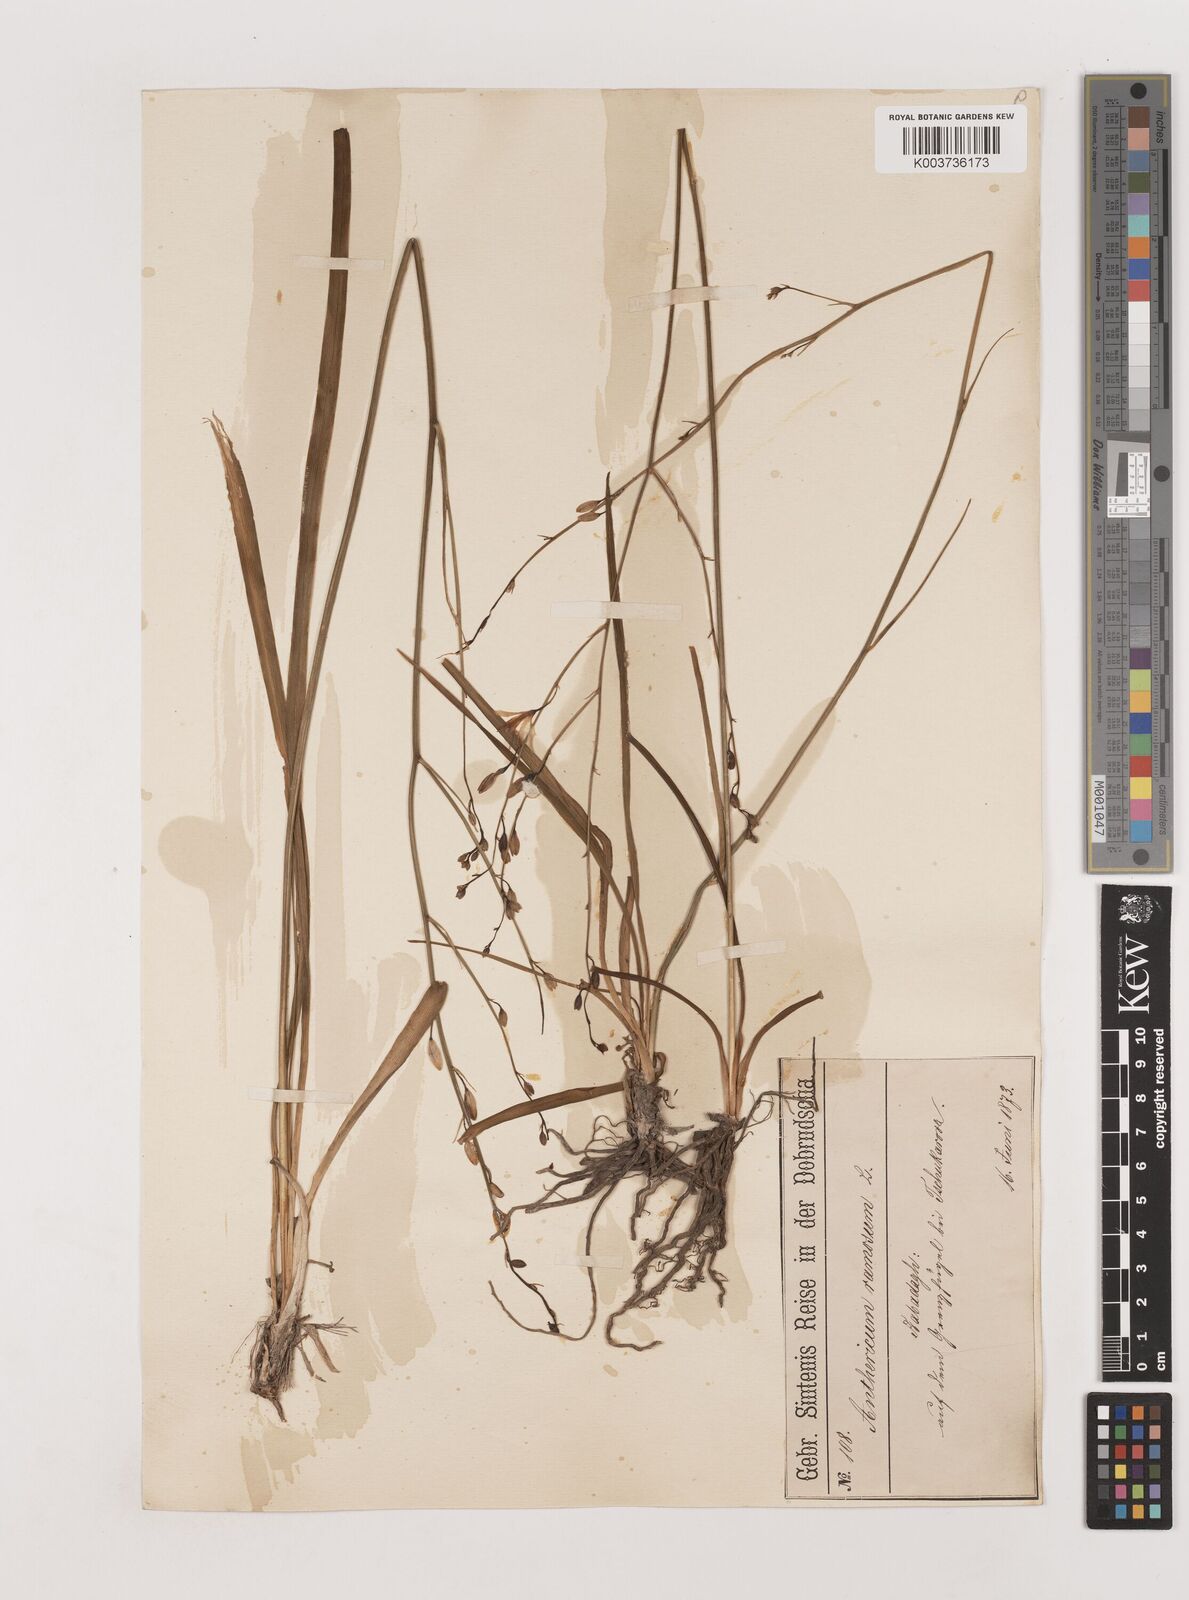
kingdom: Plantae
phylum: Tracheophyta
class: Liliopsida
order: Asparagales
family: Asparagaceae
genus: Anthericum
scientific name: Anthericum ramosum
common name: Branched st. bernard's-lily
